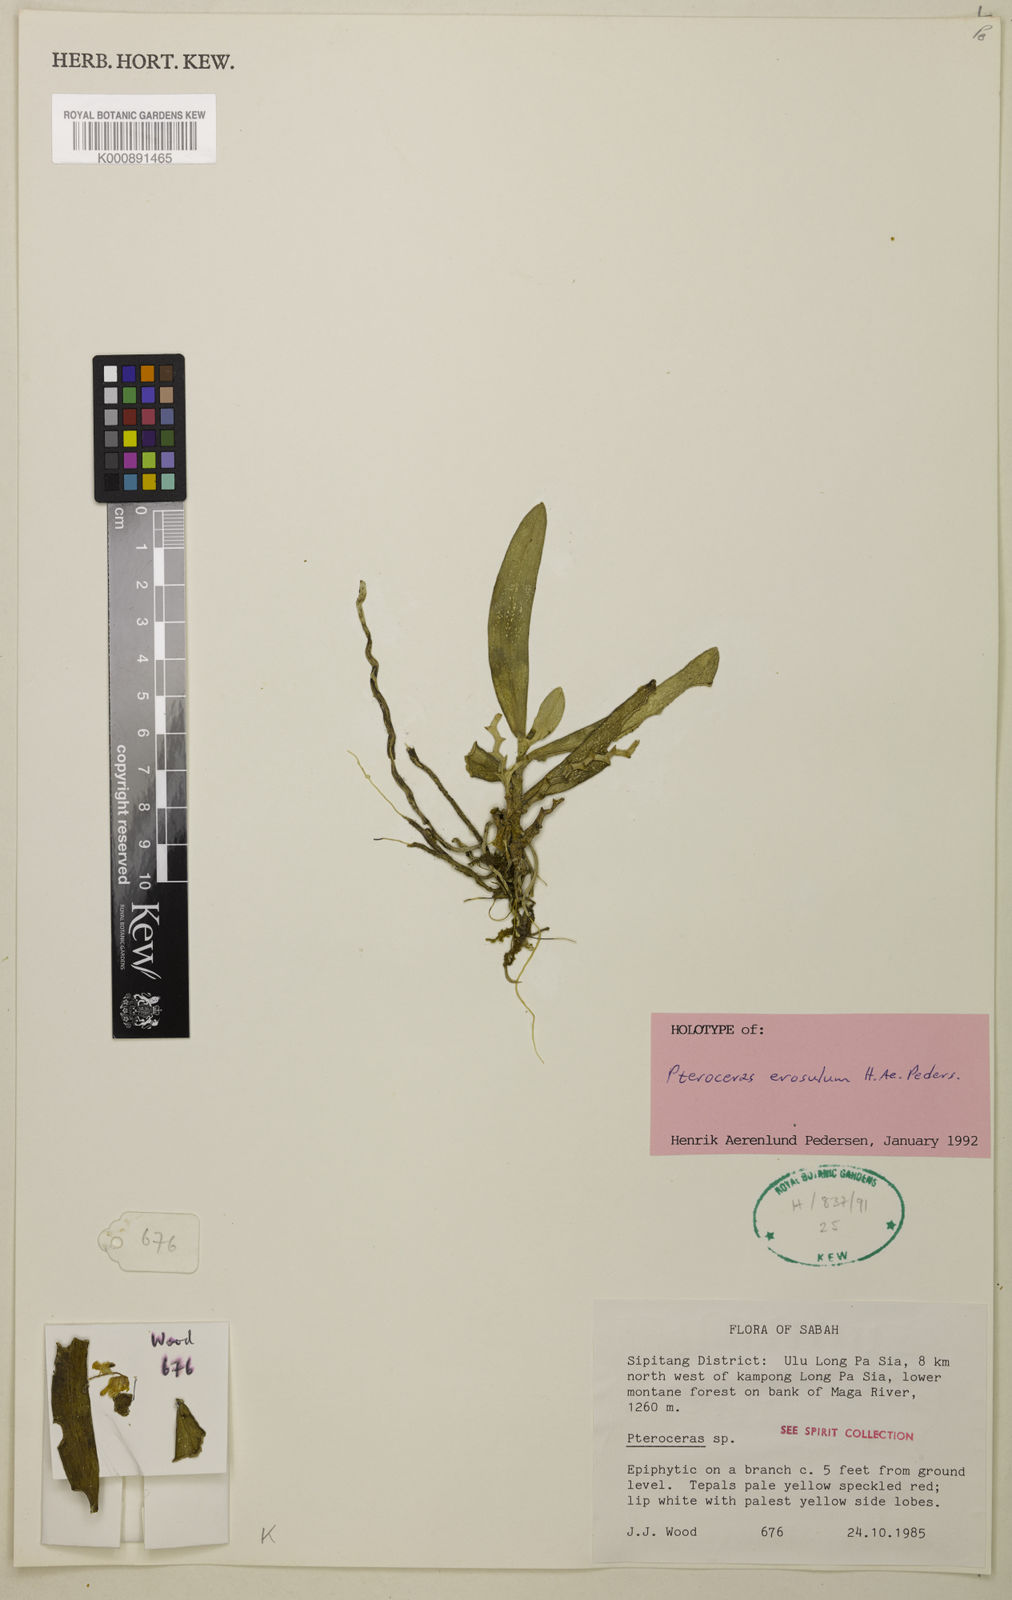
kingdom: Plantae
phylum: Tracheophyta
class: Liliopsida
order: Asparagales
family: Orchidaceae
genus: Pteroceras
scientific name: Pteroceras erosulum
